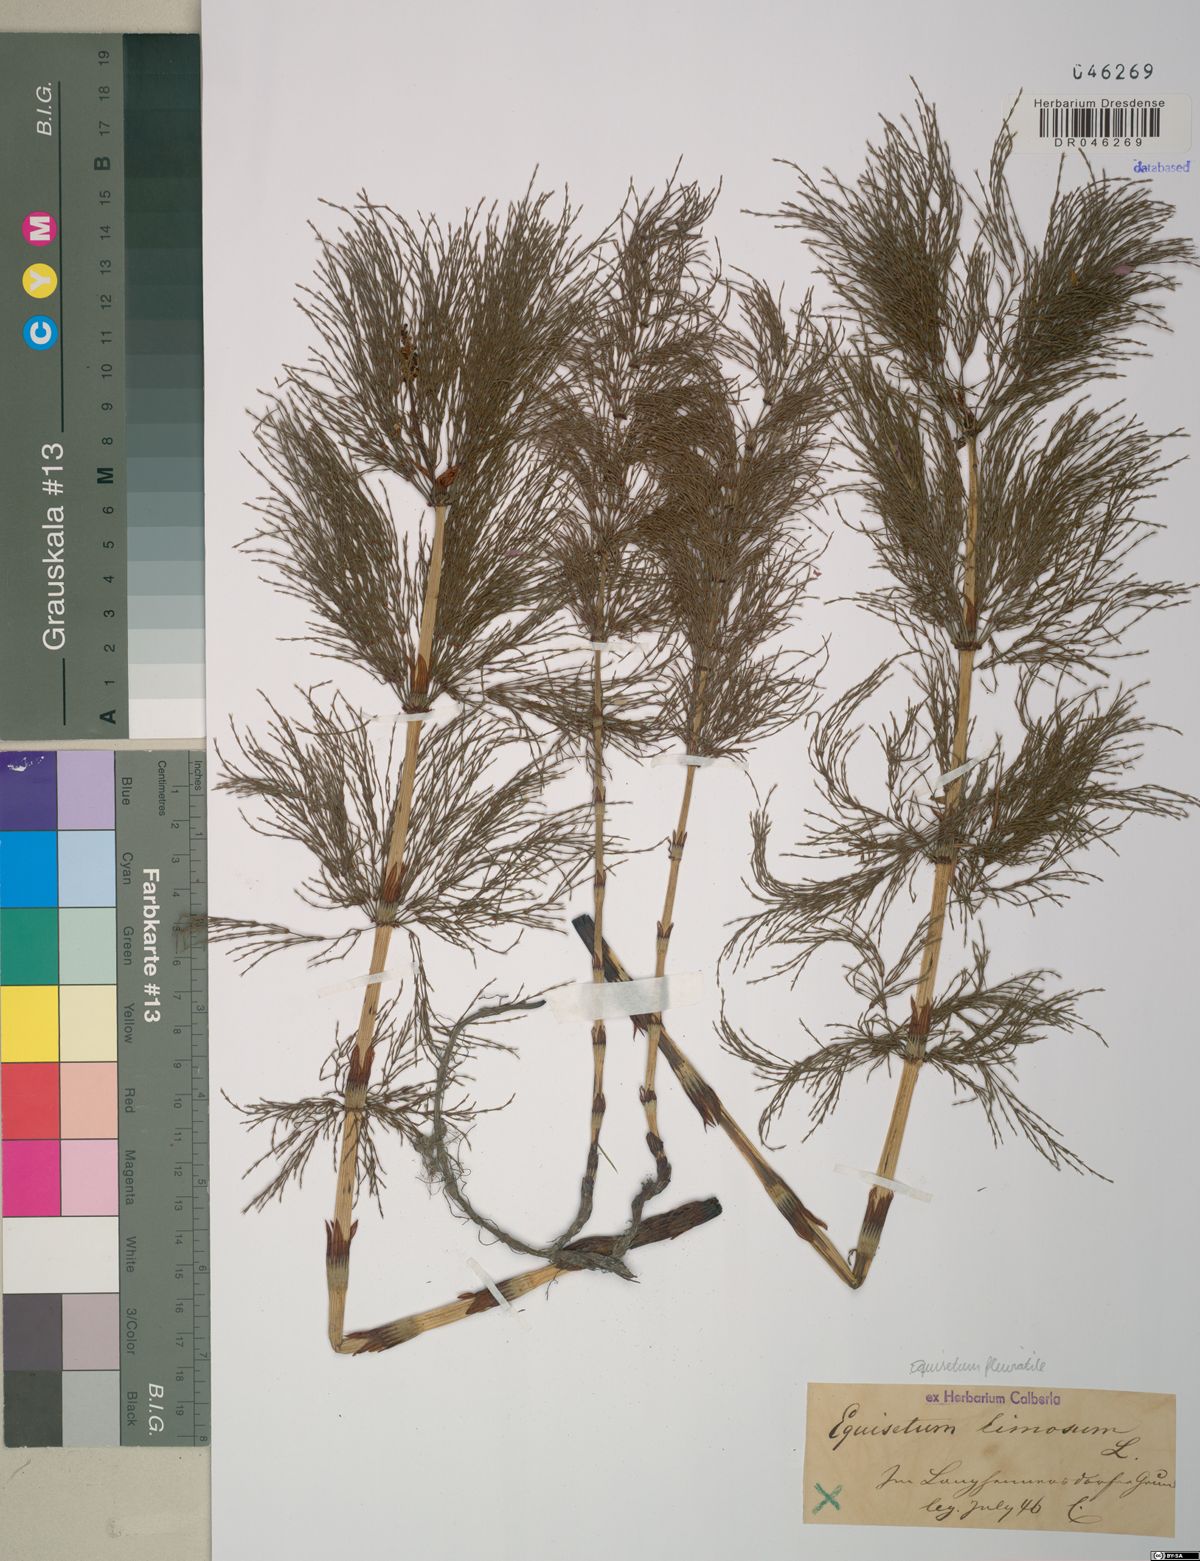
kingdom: Plantae
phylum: Tracheophyta
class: Polypodiopsida
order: Equisetales
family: Equisetaceae
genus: Equisetum
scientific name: Equisetum fluviatile
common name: Water horsetail
